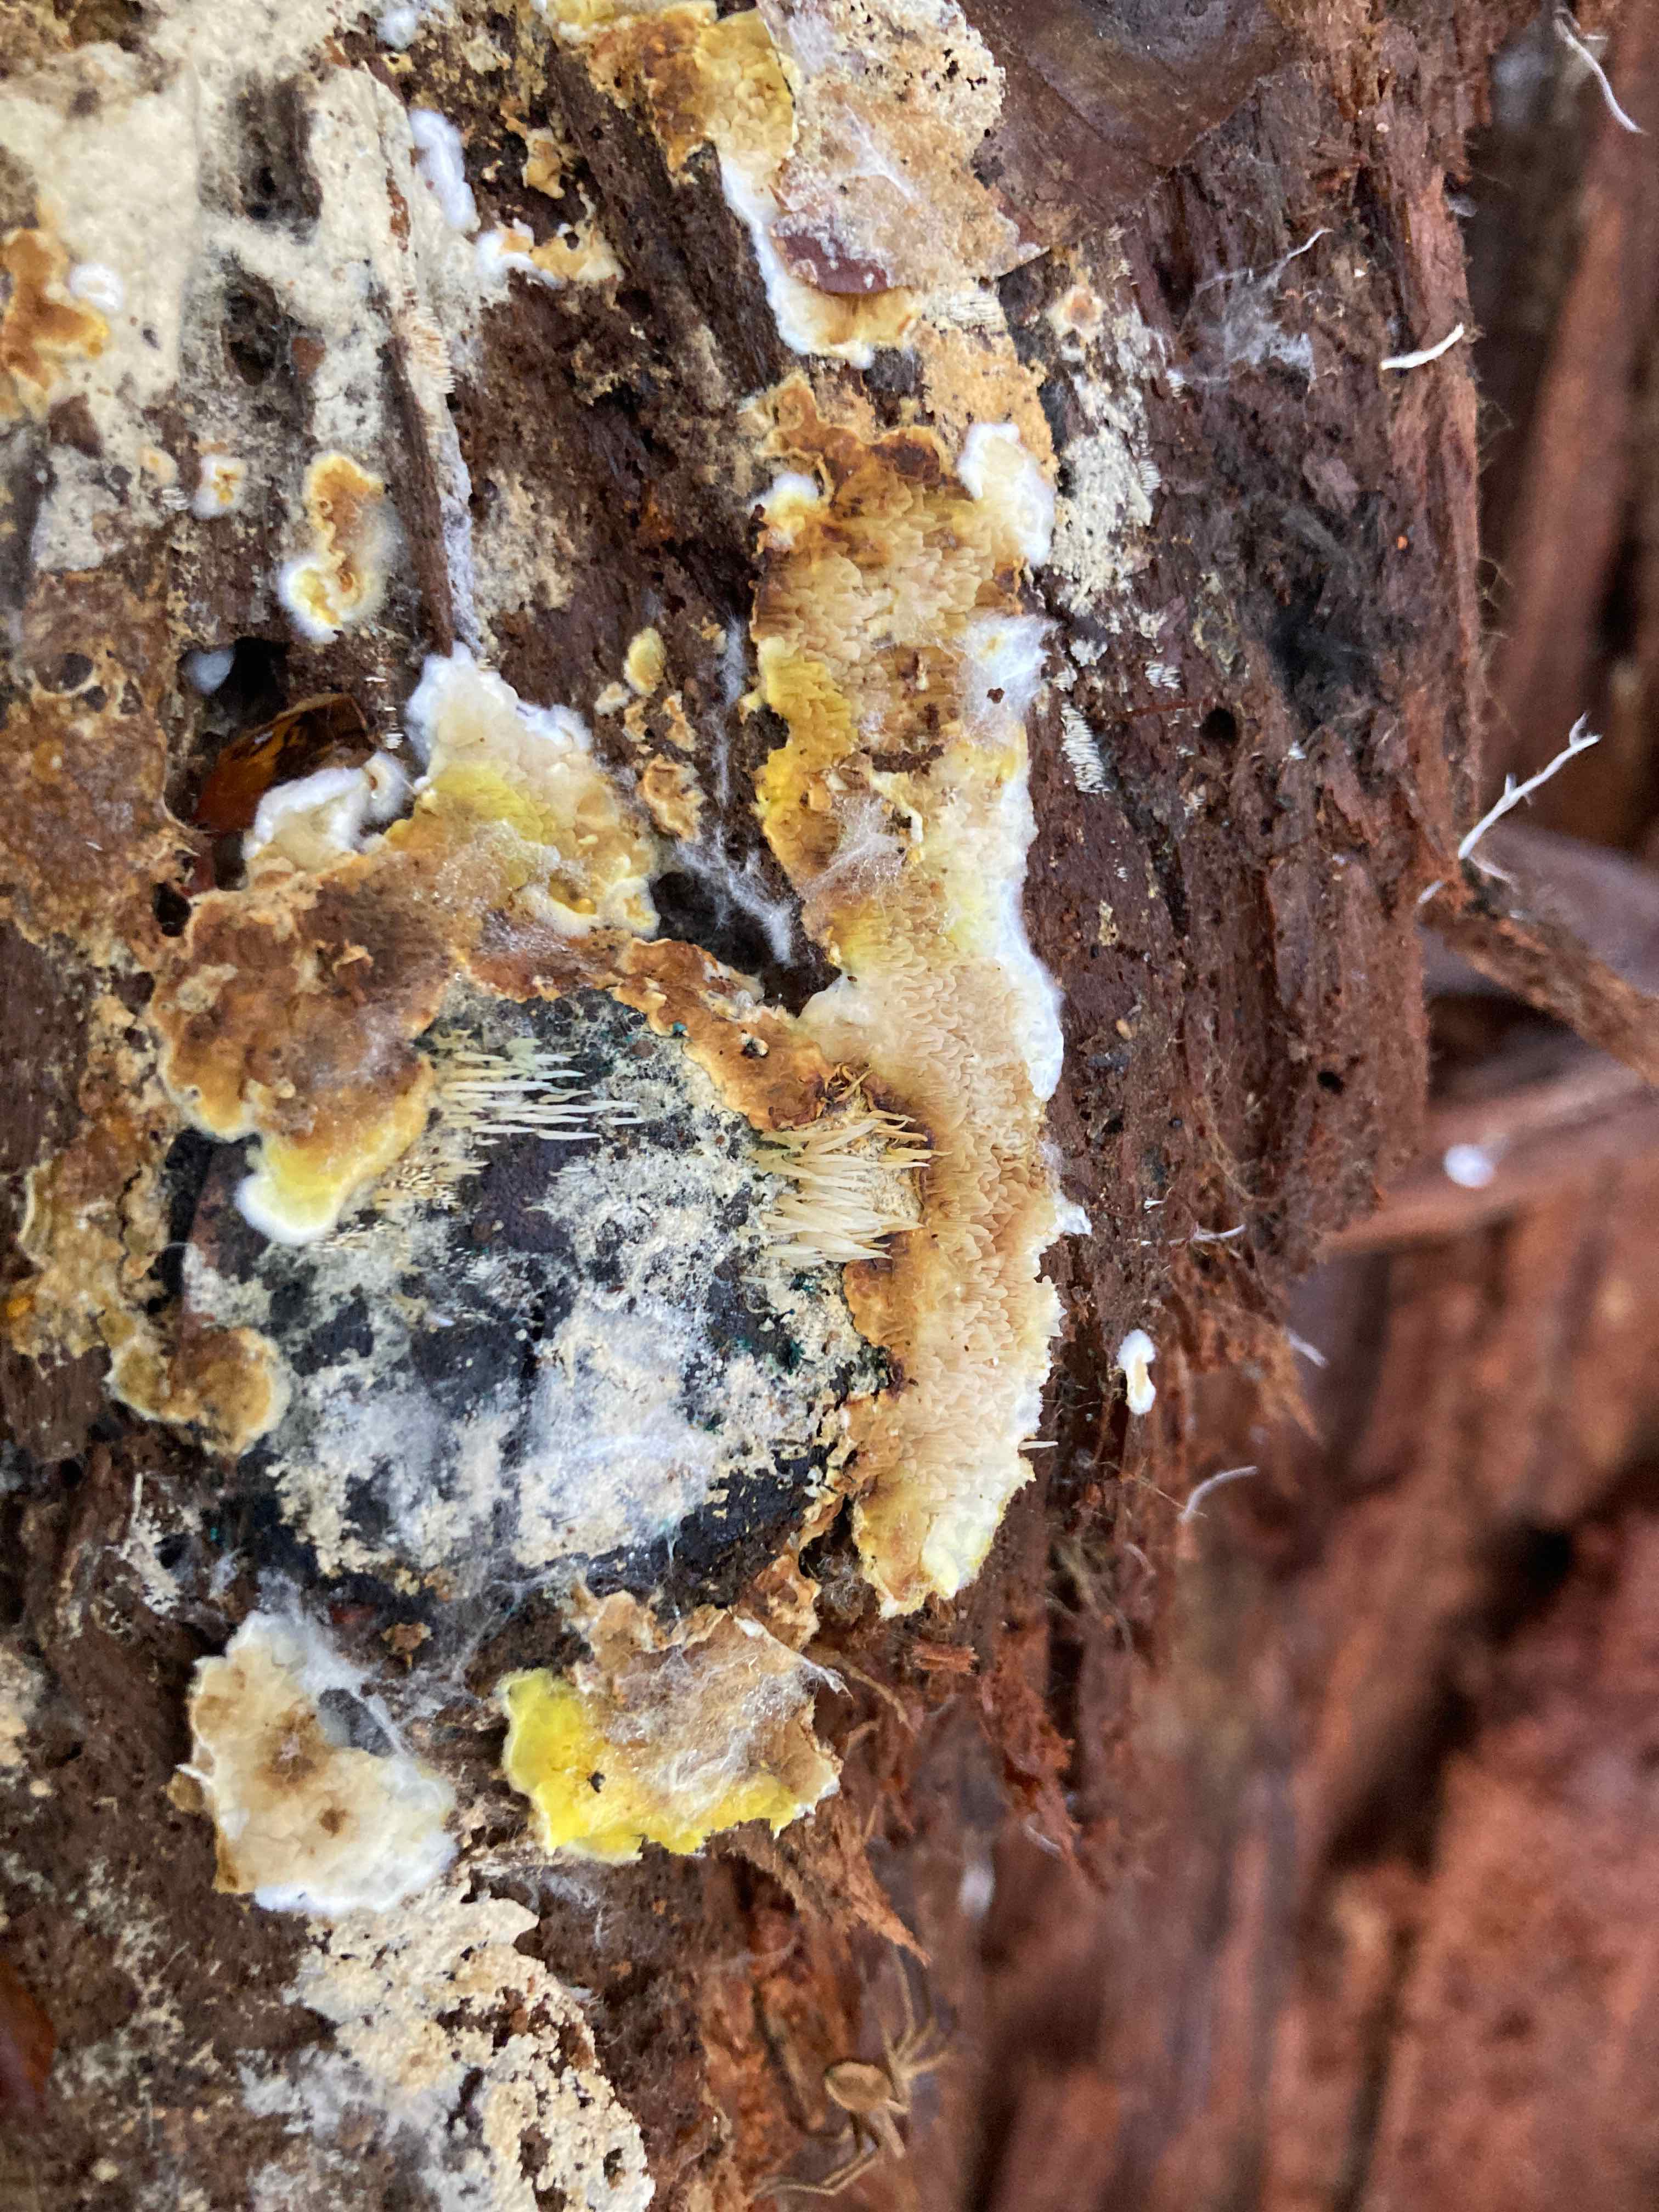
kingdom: Fungi
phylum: Basidiomycota
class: Agaricomycetes
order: Agaricales
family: Clavariaceae
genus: Mucronella
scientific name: Mucronella
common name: hængepig
